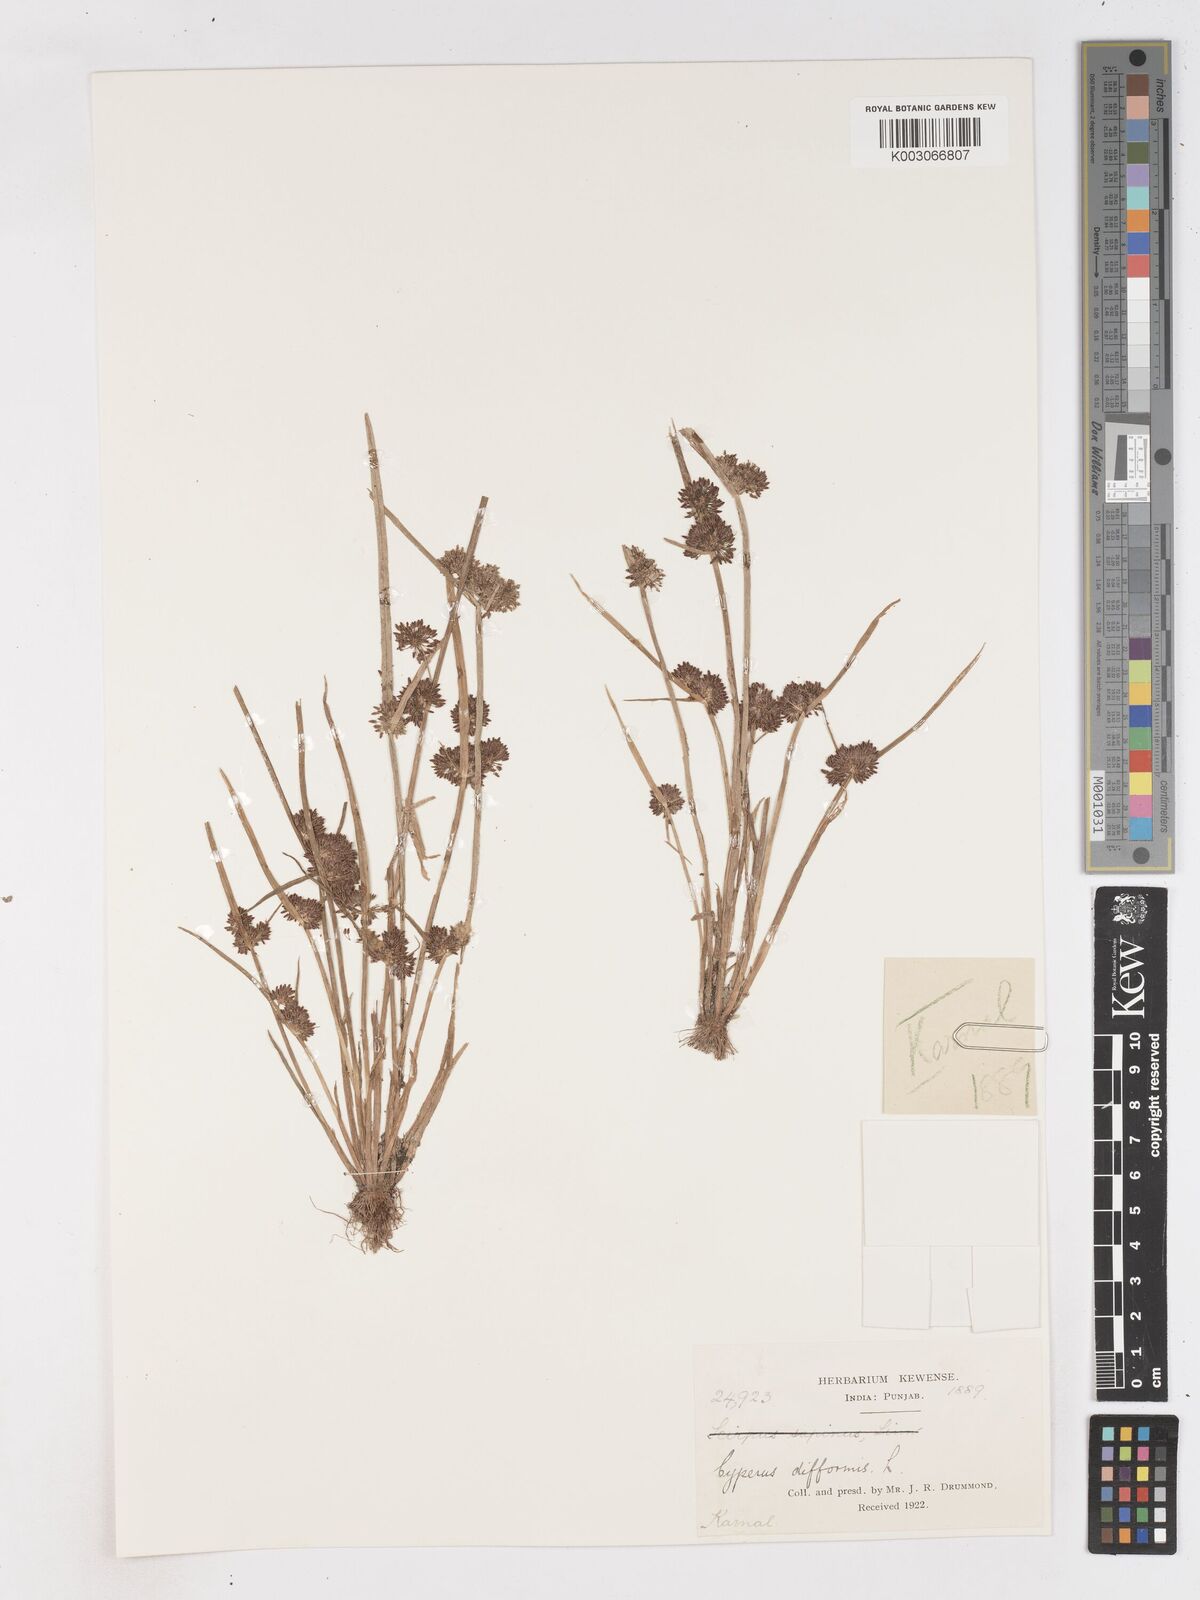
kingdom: Plantae
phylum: Tracheophyta
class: Liliopsida
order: Poales
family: Cyperaceae
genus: Cyperus
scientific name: Cyperus difformis
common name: Variable flatsedge
